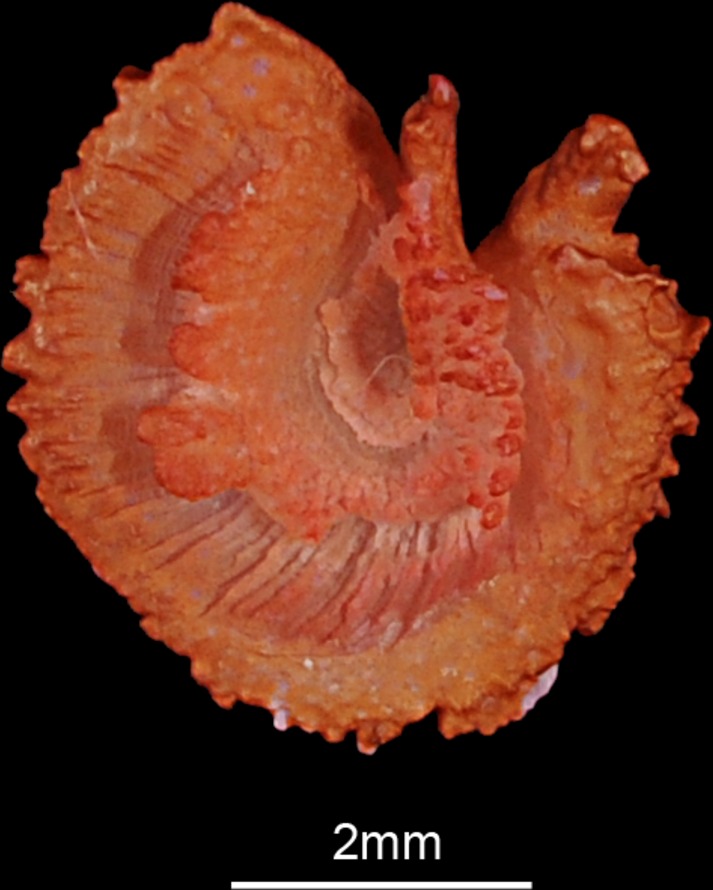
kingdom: Animalia
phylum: Chordata
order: Cypriniformes
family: Cyprinidae
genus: Barbus
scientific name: Barbus meridionalis
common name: Mediterranean barbel
